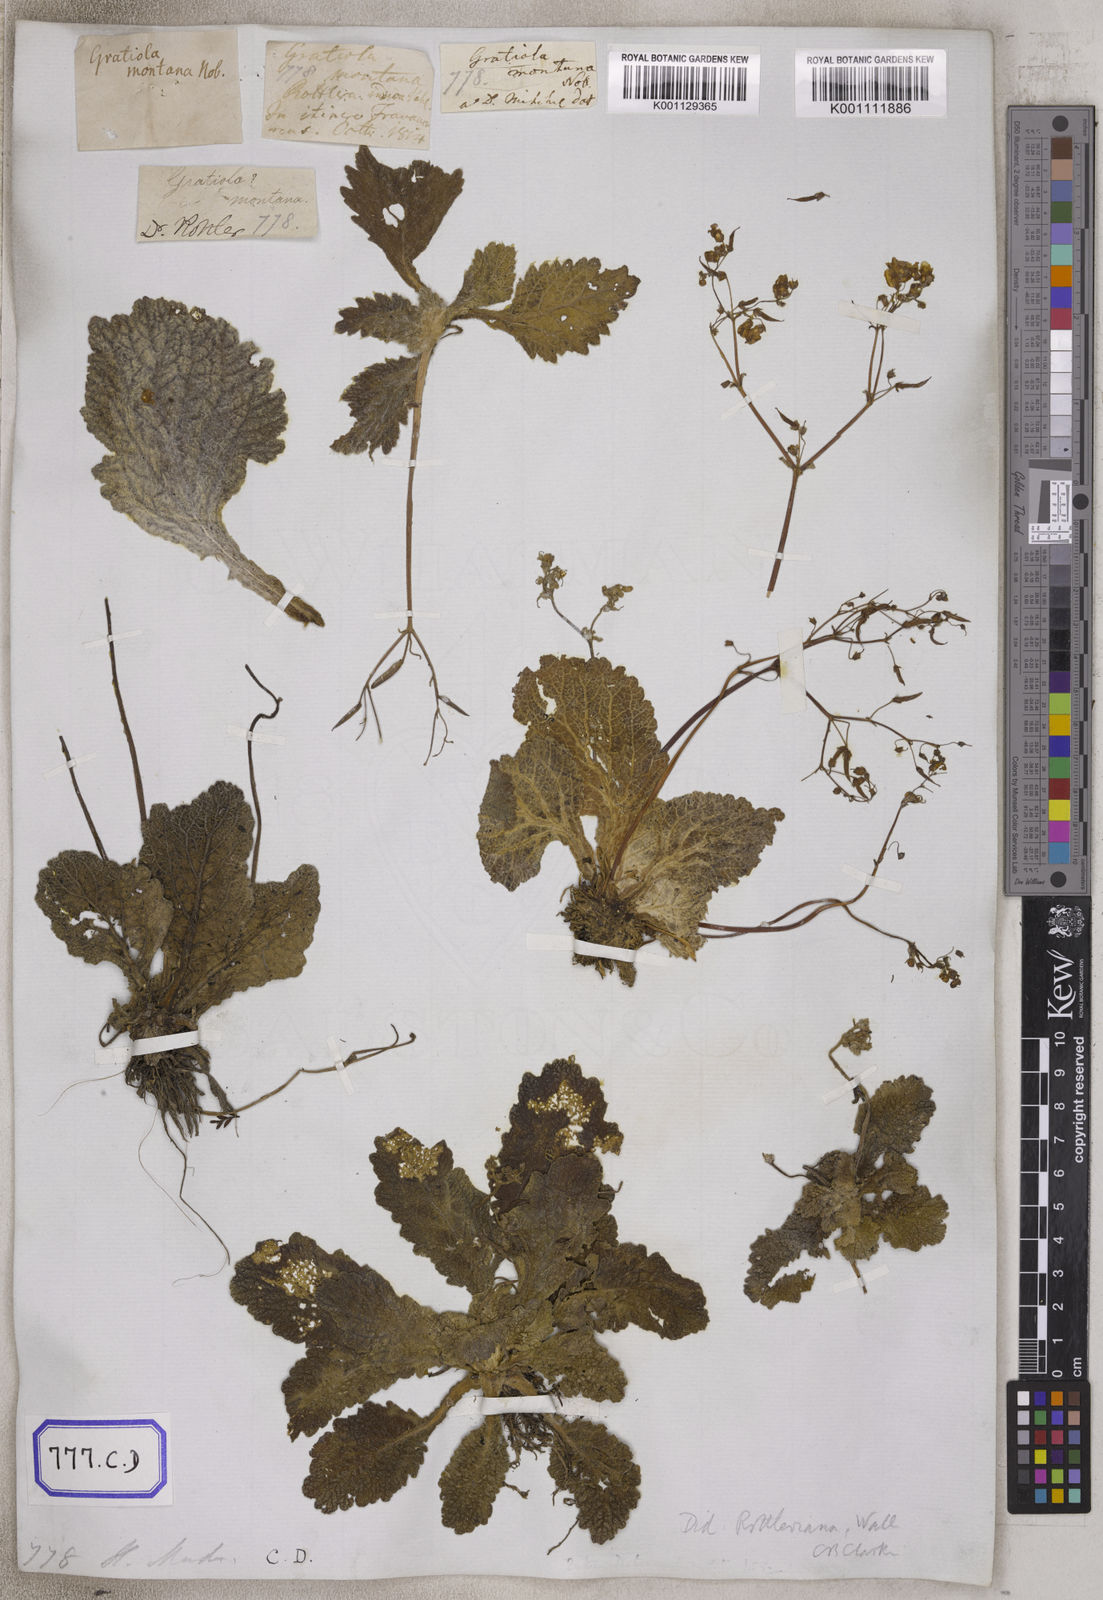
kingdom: Plantae
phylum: Tracheophyta
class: Magnoliopsida
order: Lamiales
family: Gesneriaceae
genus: Didymocarpus
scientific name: Didymocarpus
